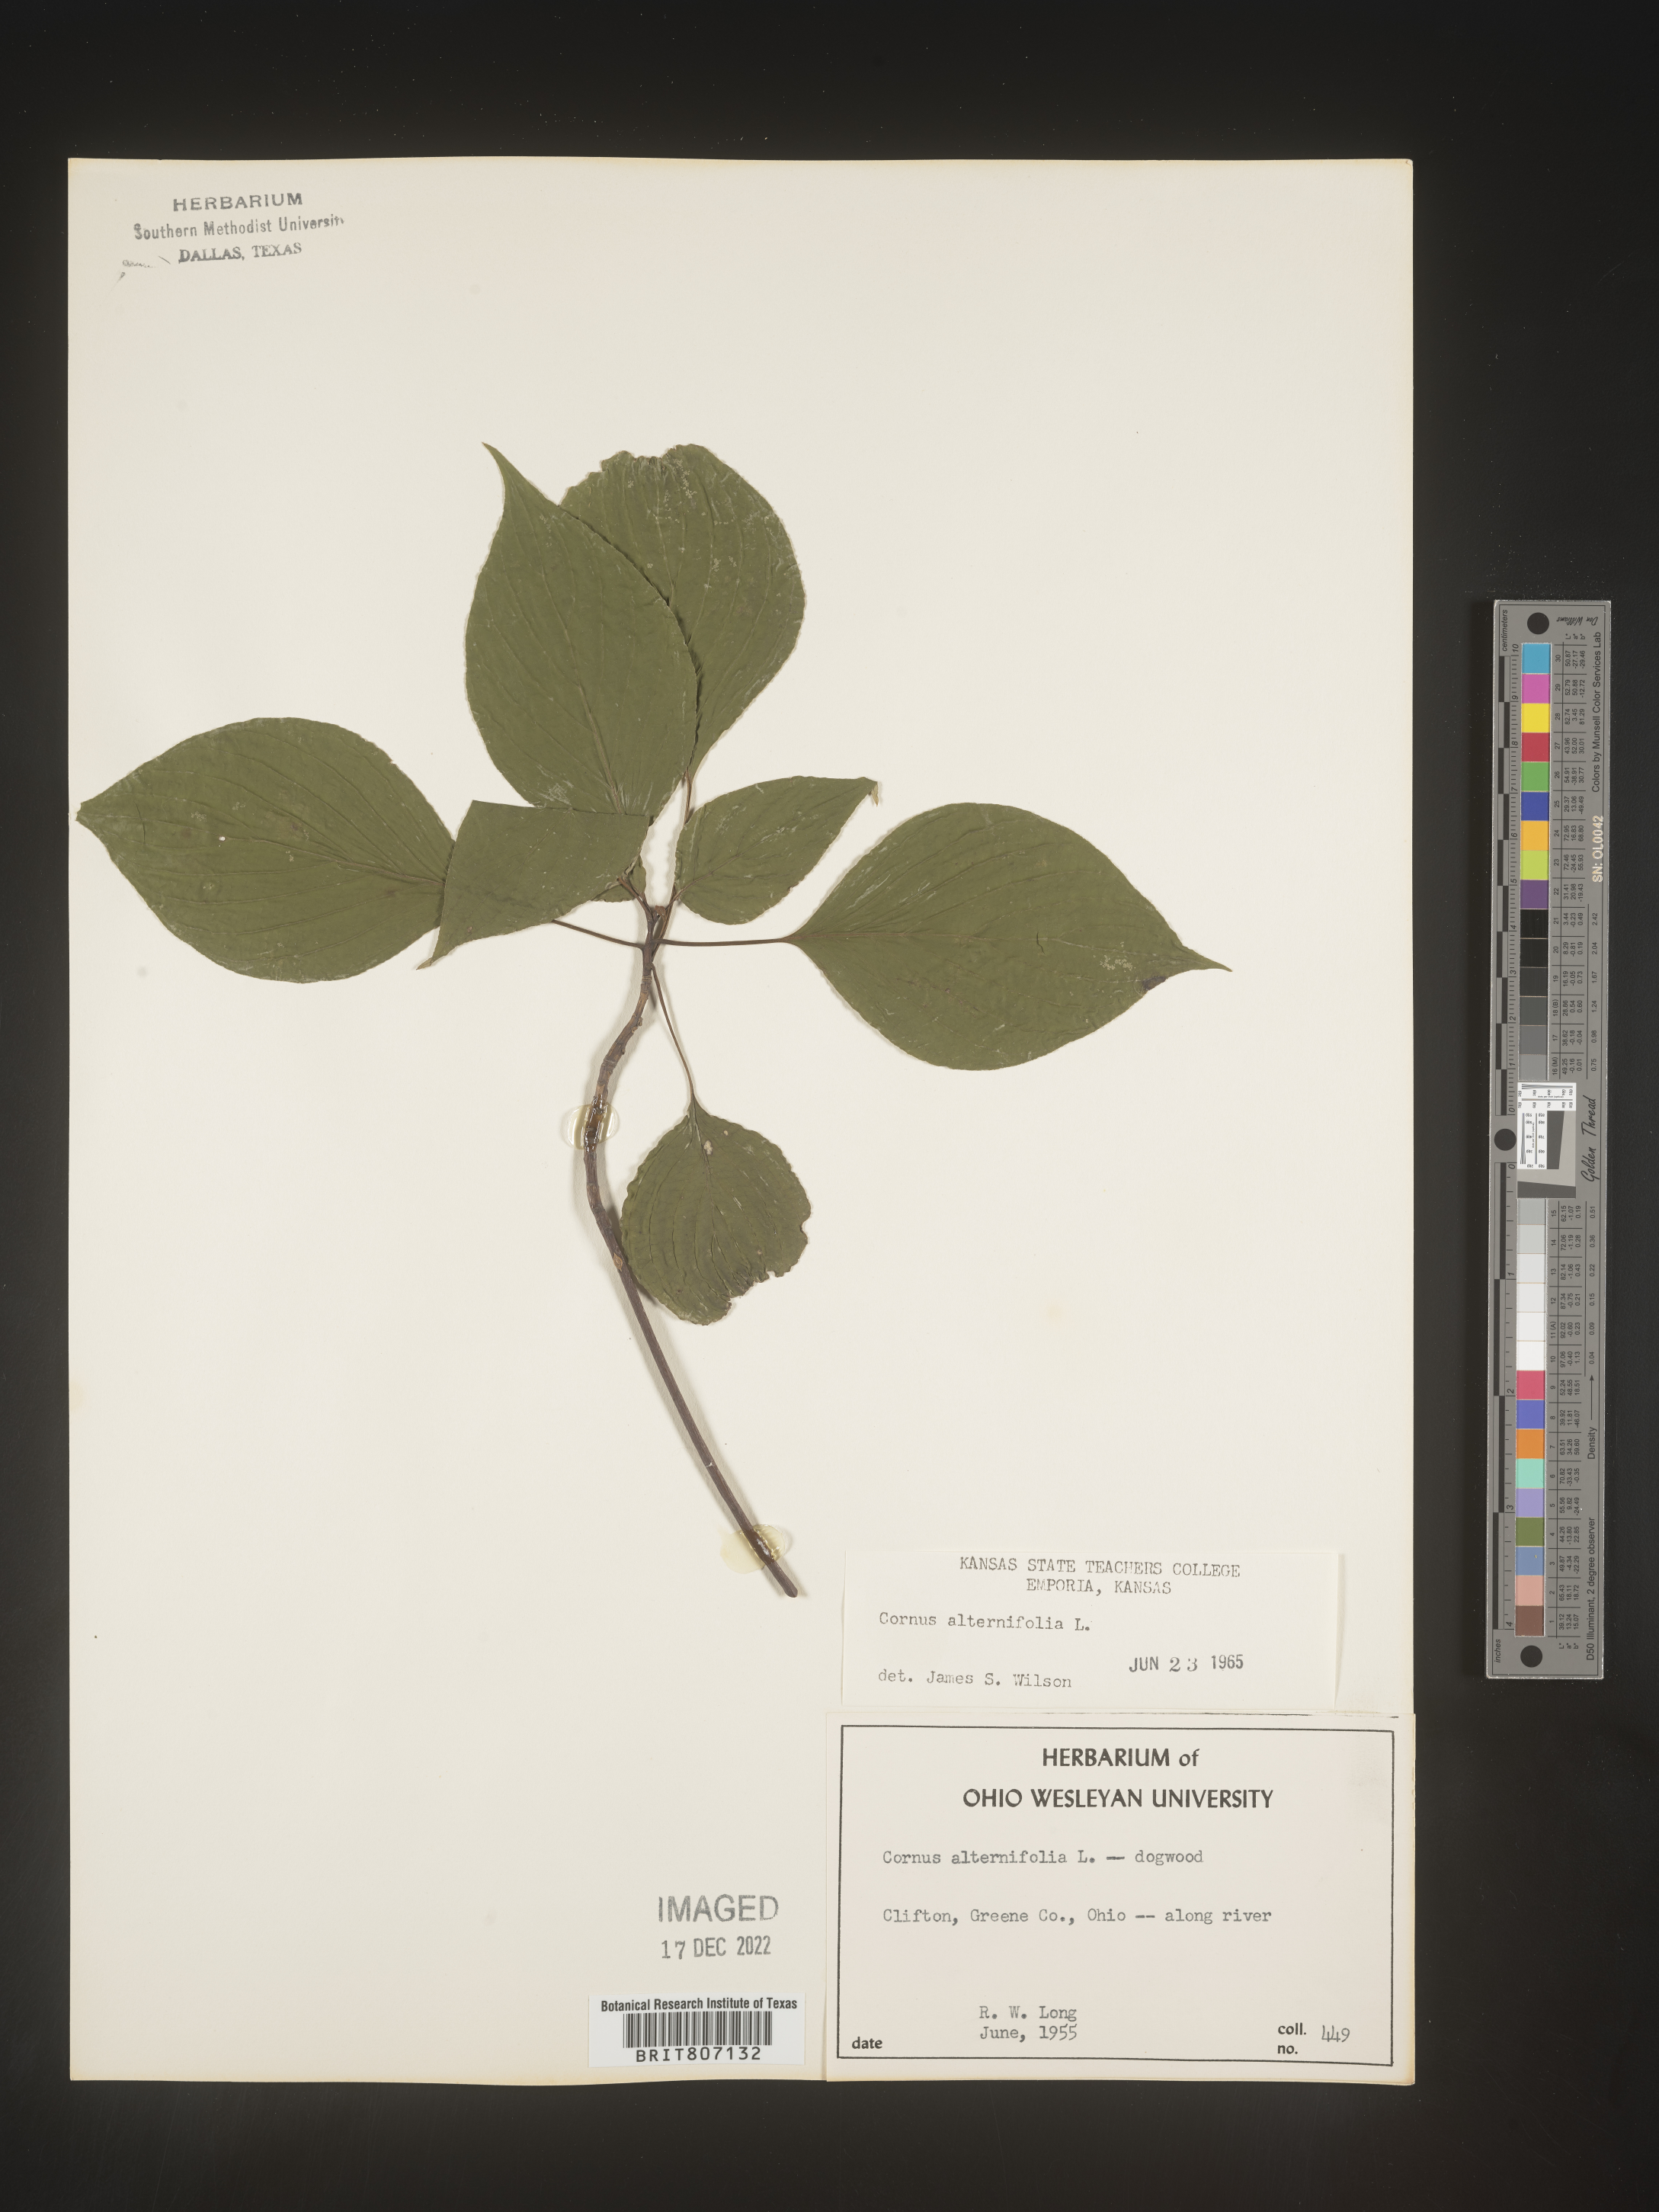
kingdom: Plantae
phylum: Tracheophyta
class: Magnoliopsida
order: Cornales
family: Cornaceae
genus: Cornus
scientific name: Cornus alternifolia
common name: Pagoda dogwood
